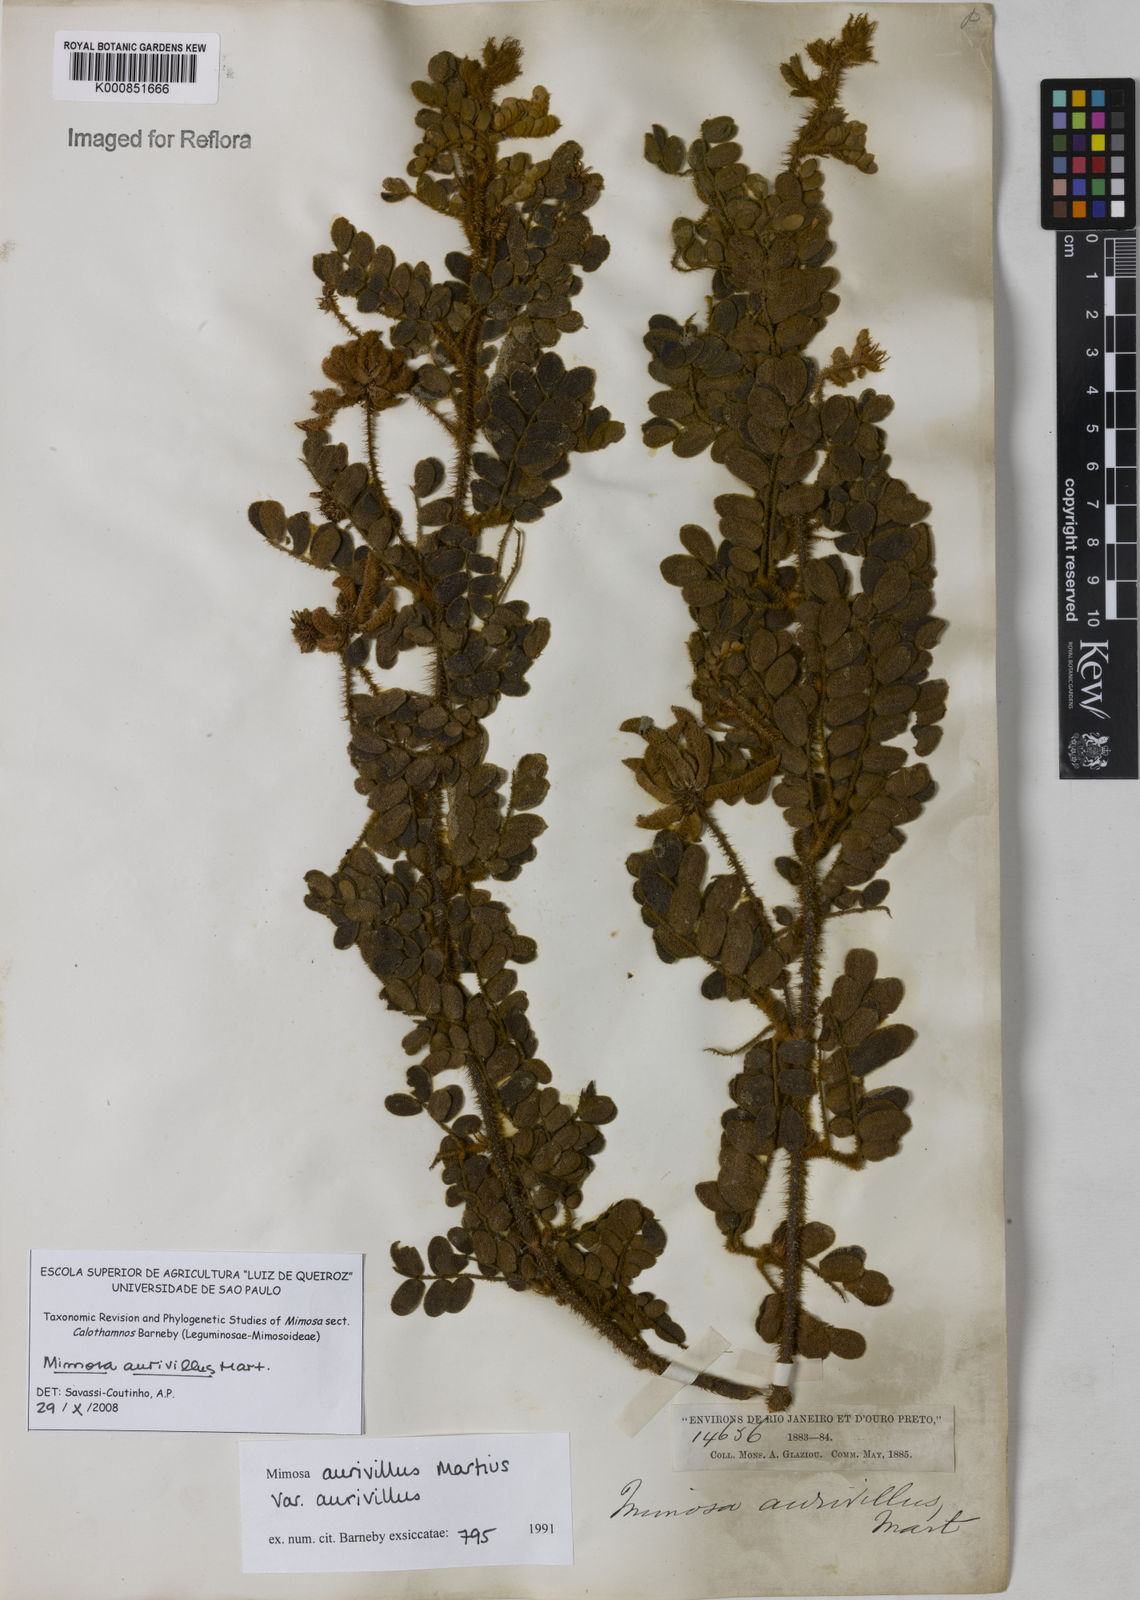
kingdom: Plantae
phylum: Tracheophyta
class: Magnoliopsida
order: Fabales
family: Fabaceae
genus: Mimosa
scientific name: Mimosa aurivillus
